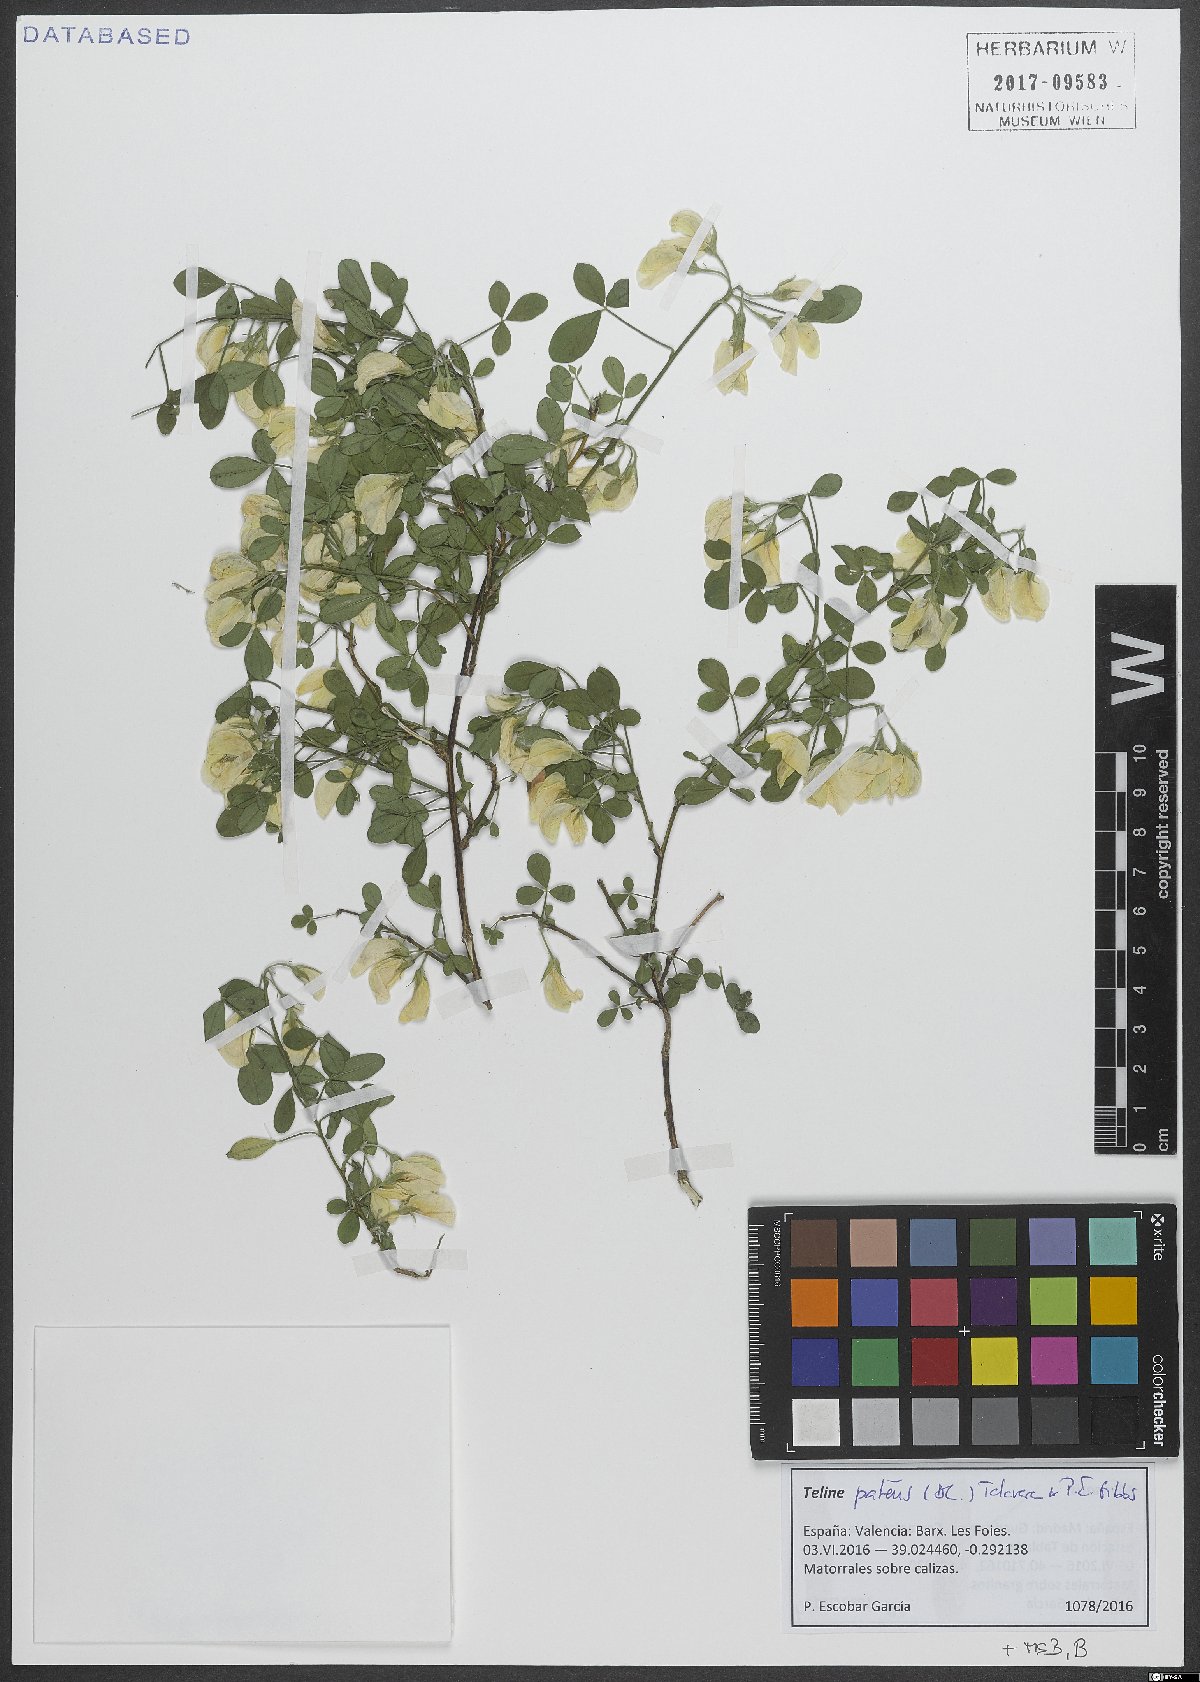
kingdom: Plantae
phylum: Tracheophyta
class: Magnoliopsida
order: Fabales
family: Fabaceae
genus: Genista
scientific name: Genista patens
